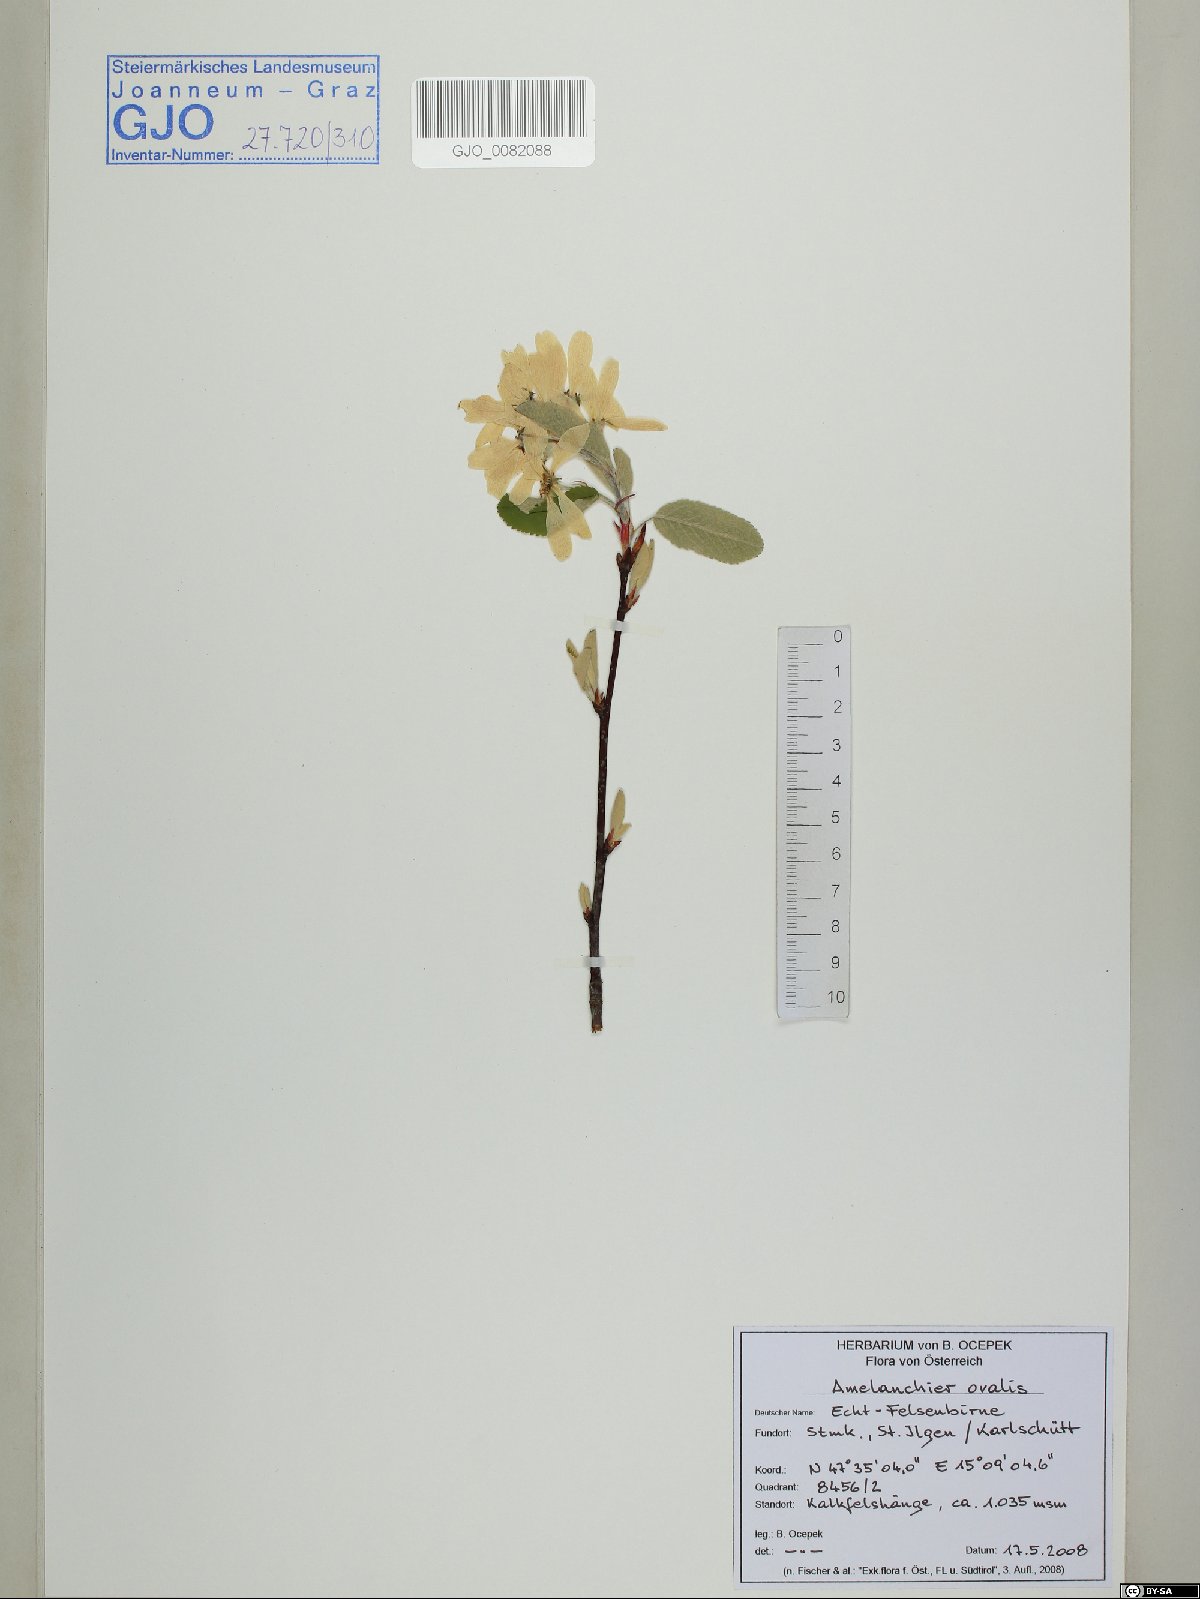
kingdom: Plantae
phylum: Tracheophyta
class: Magnoliopsida
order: Rosales
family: Rosaceae
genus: Amelanchier
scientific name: Amelanchier ovalis
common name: Serviceberry
